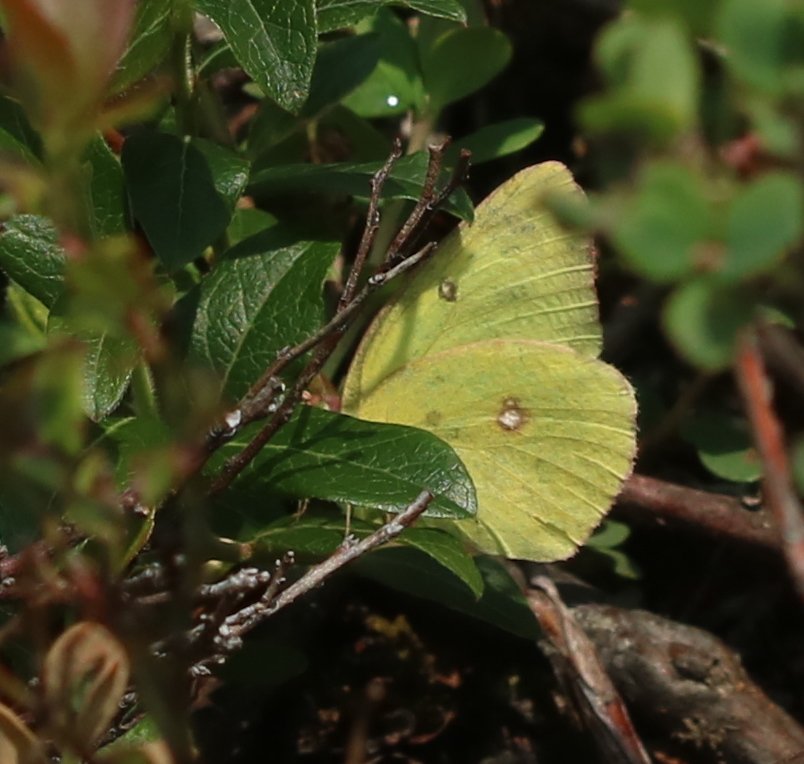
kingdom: Animalia
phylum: Arthropoda
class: Insecta
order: Lepidoptera
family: Pieridae
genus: Colias
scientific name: Colias philodice
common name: Clouded Sulphur
